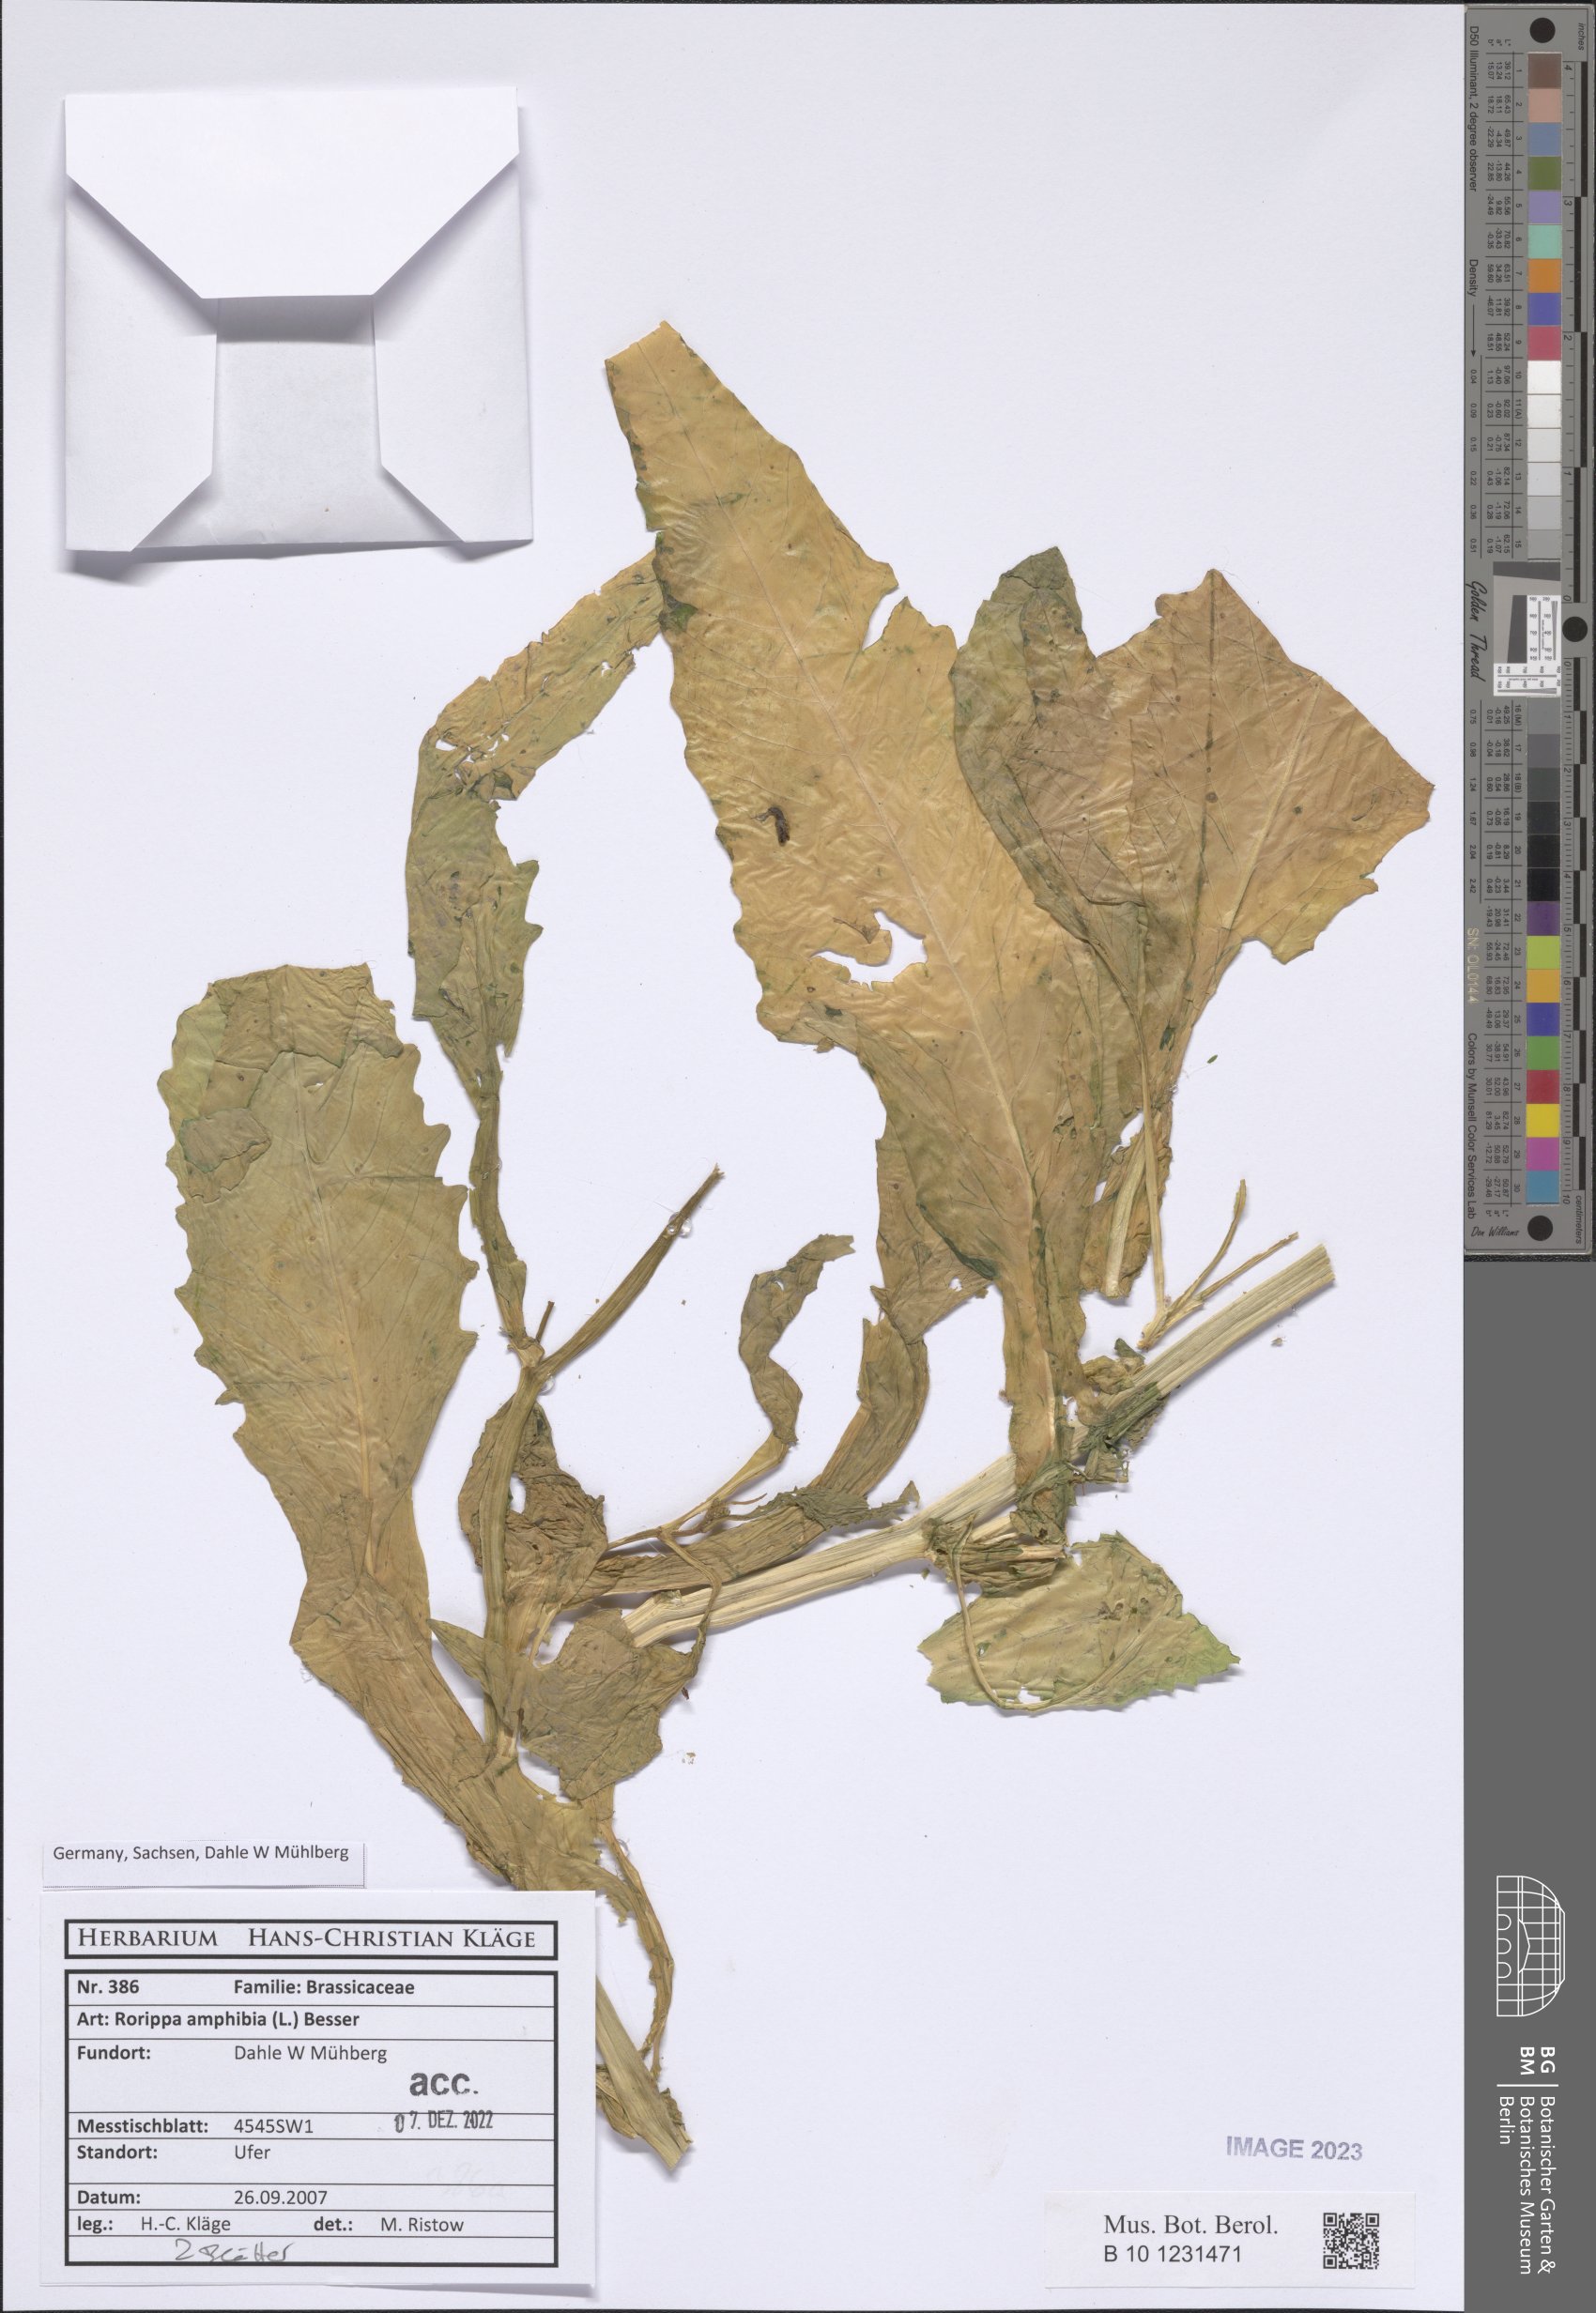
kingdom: Plantae
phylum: Tracheophyta
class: Magnoliopsida
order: Brassicales
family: Brassicaceae
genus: Rorippa
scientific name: Rorippa amphibia
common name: Great yellow-cress
